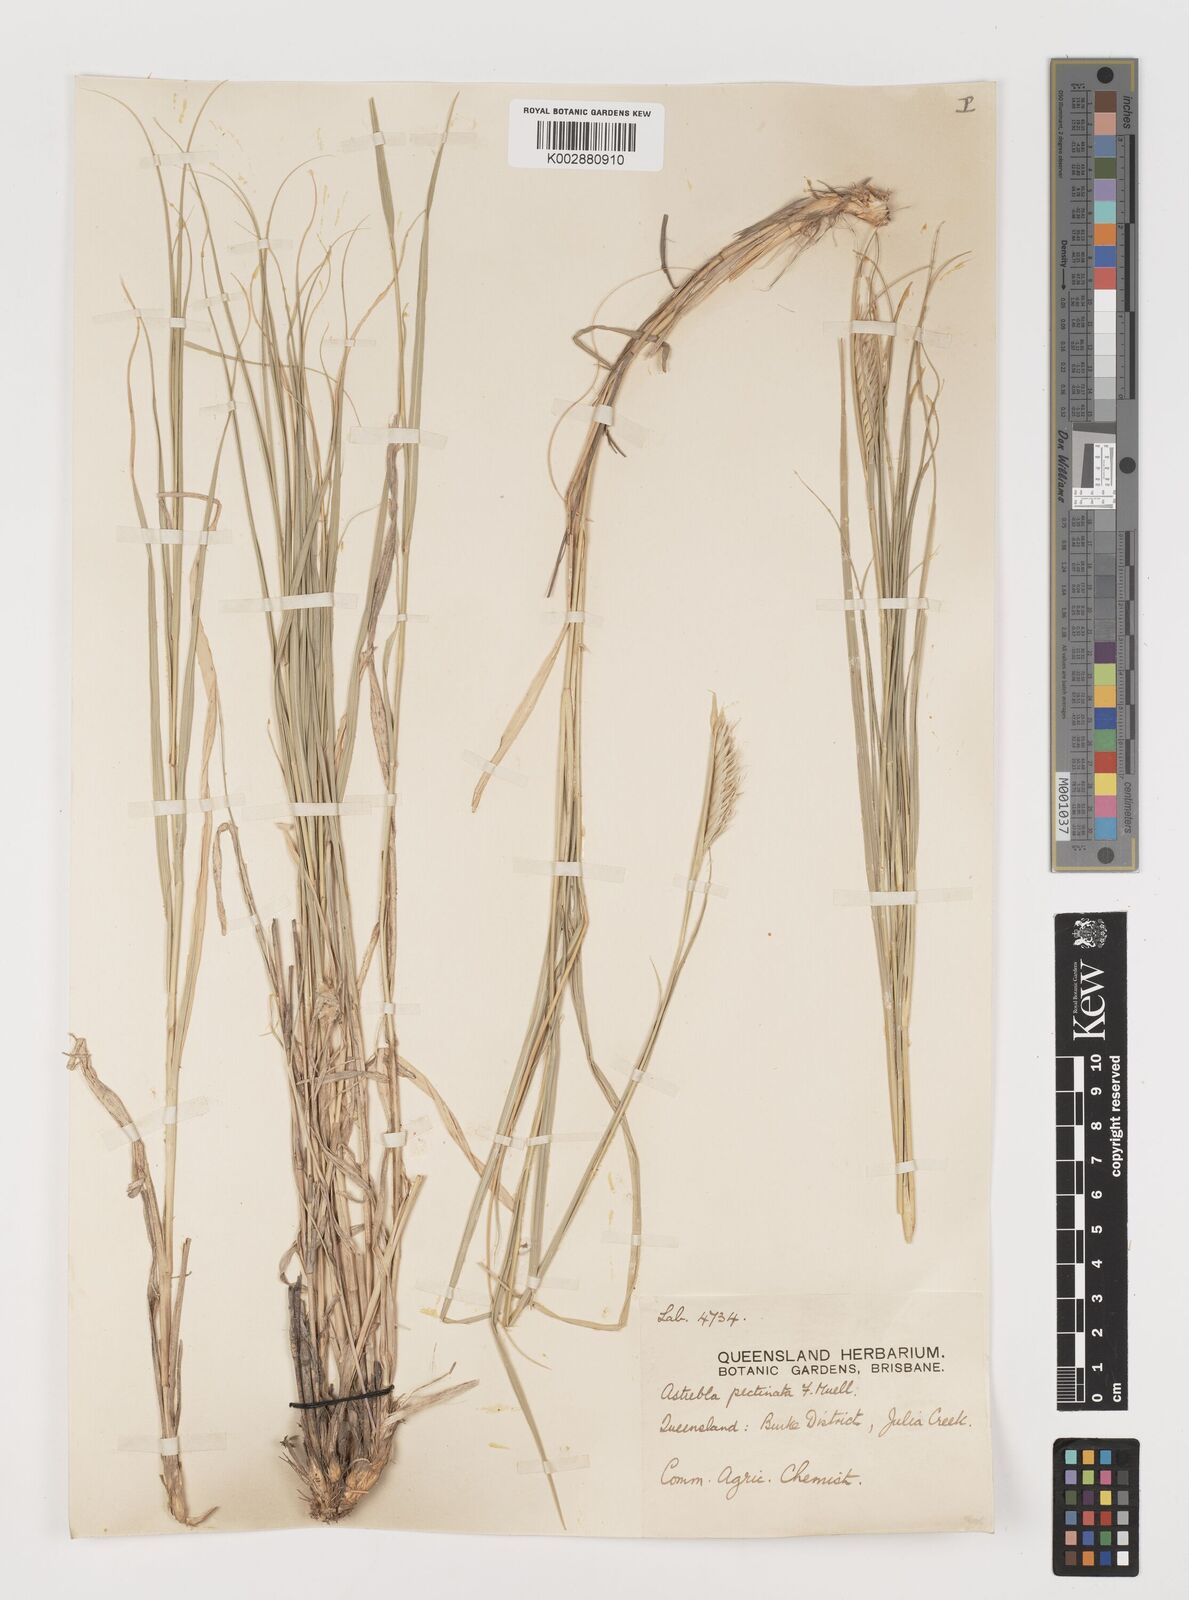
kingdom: Plantae
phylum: Tracheophyta
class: Liliopsida
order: Poales
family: Poaceae
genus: Astrebla
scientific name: Astrebla pectinata
